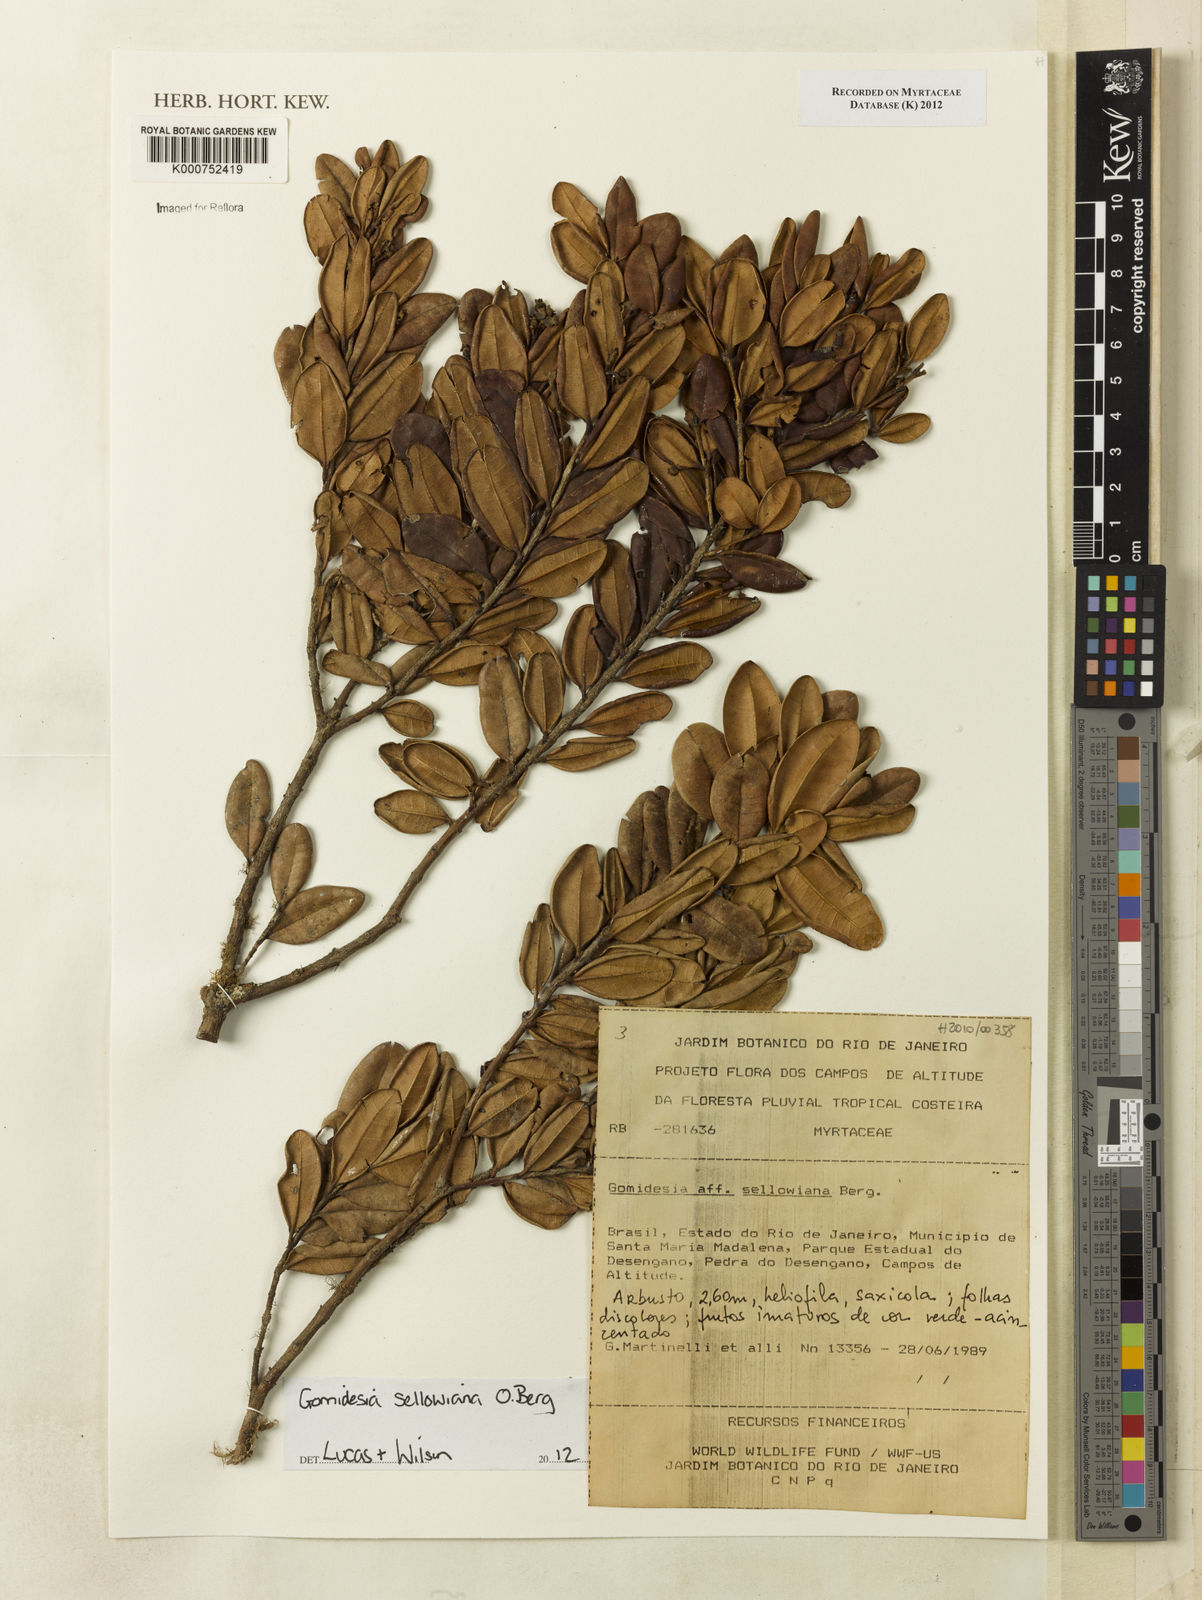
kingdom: Plantae
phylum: Tracheophyta
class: Magnoliopsida
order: Myrtales
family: Myrtaceae
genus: Myrcia
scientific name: Myrcia hartwegiana
